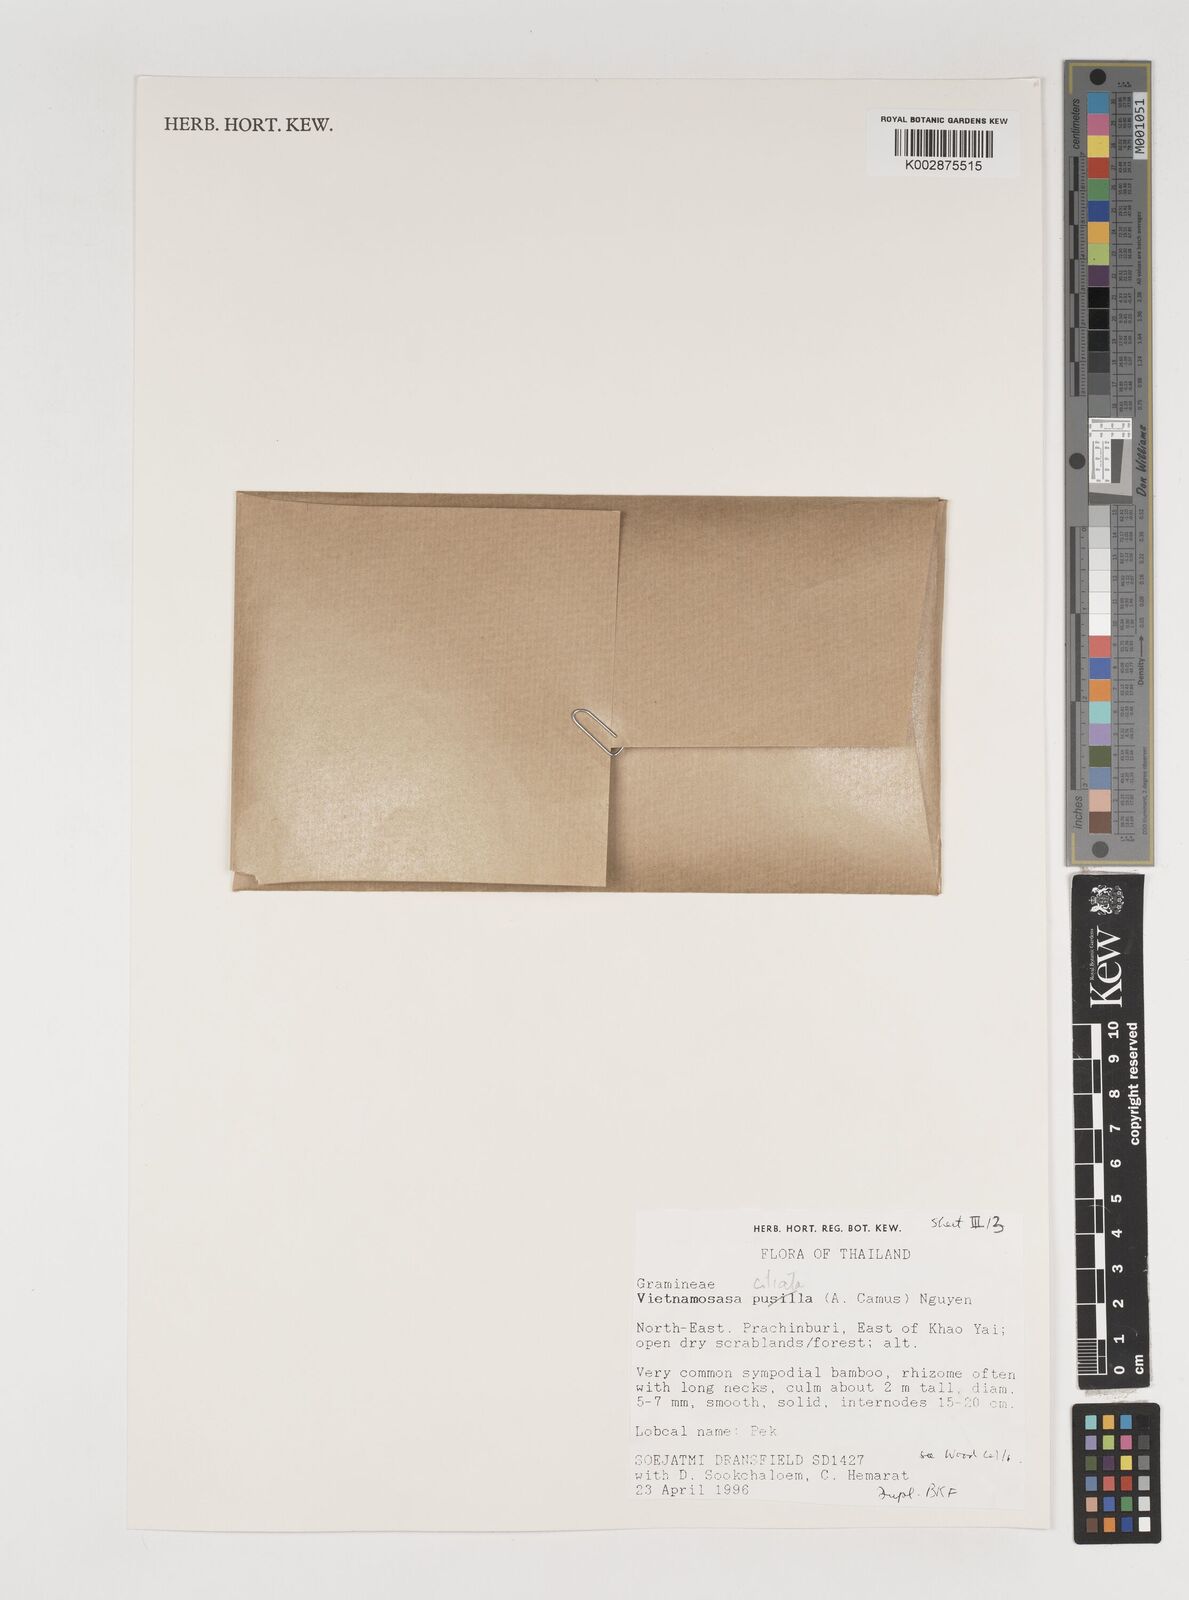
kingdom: Plantae
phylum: Tracheophyta
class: Liliopsida
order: Poales
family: Poaceae
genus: Vietnamosasa
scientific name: Vietnamosasa
